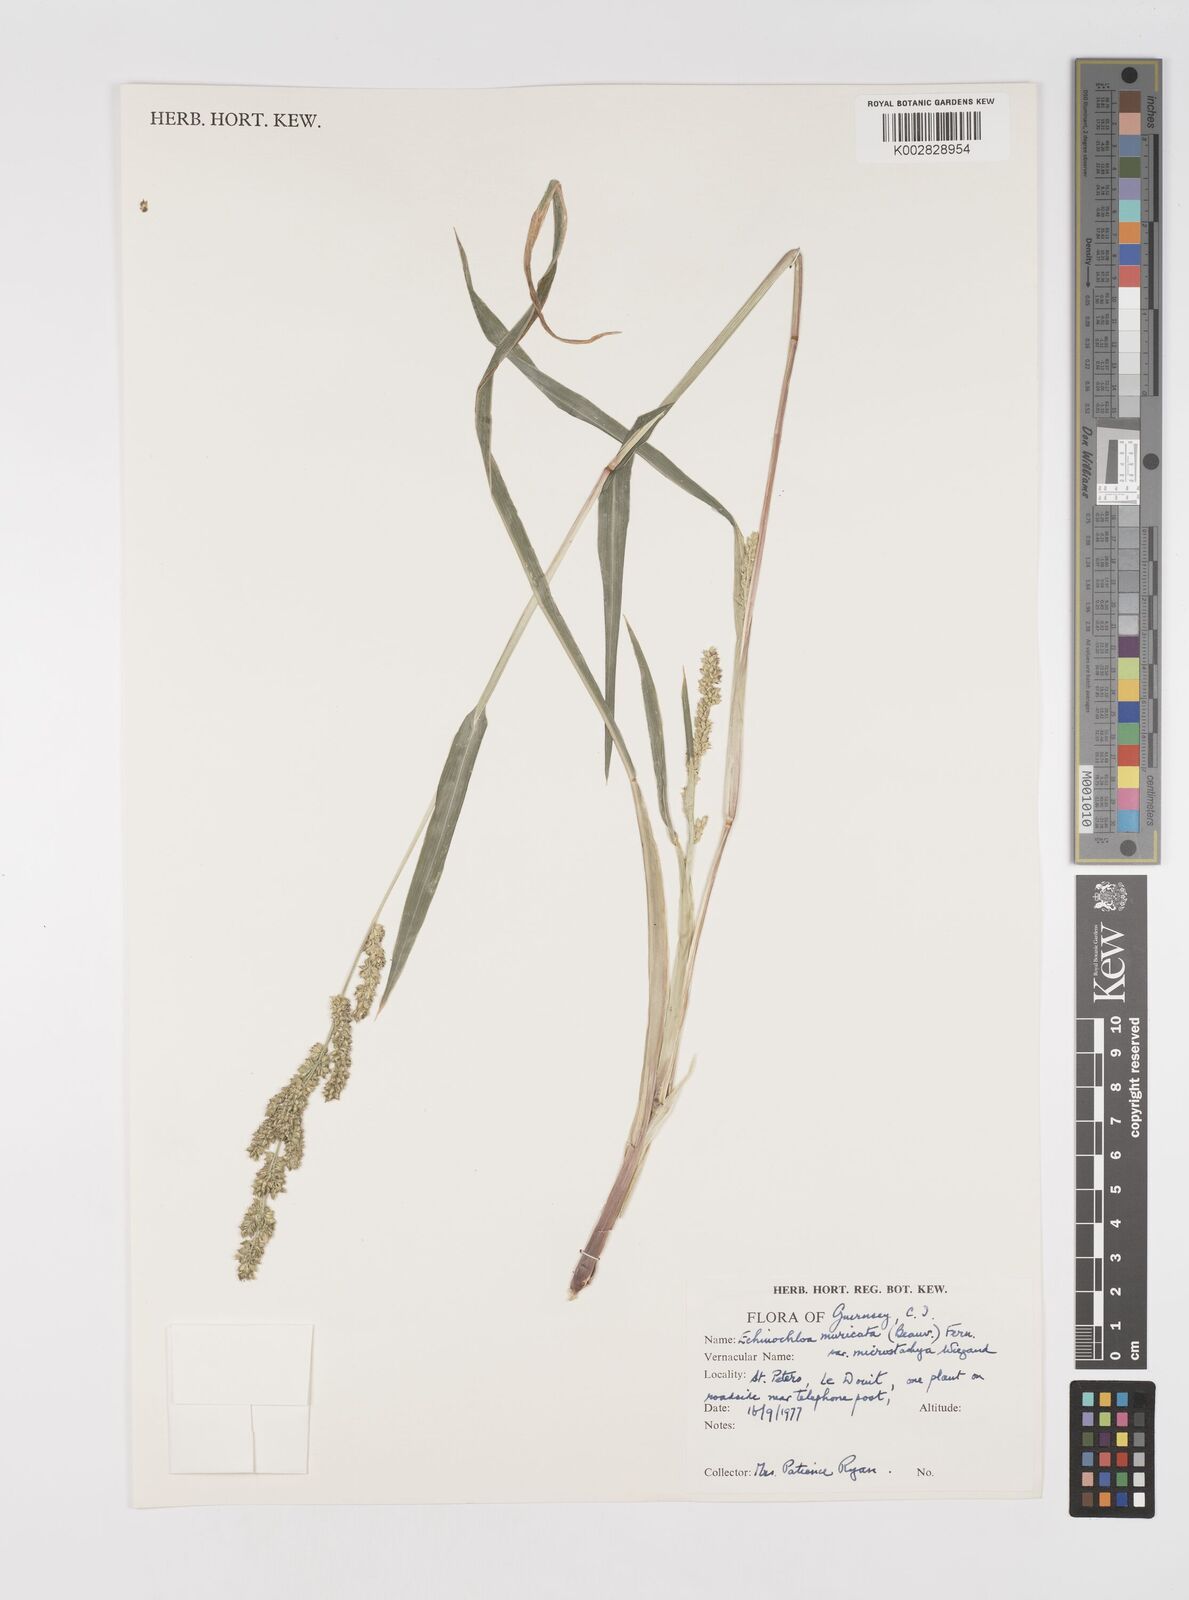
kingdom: Plantae
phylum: Tracheophyta
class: Liliopsida
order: Poales
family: Poaceae
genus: Echinochloa
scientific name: Echinochloa muricata
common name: American barnyard grass
